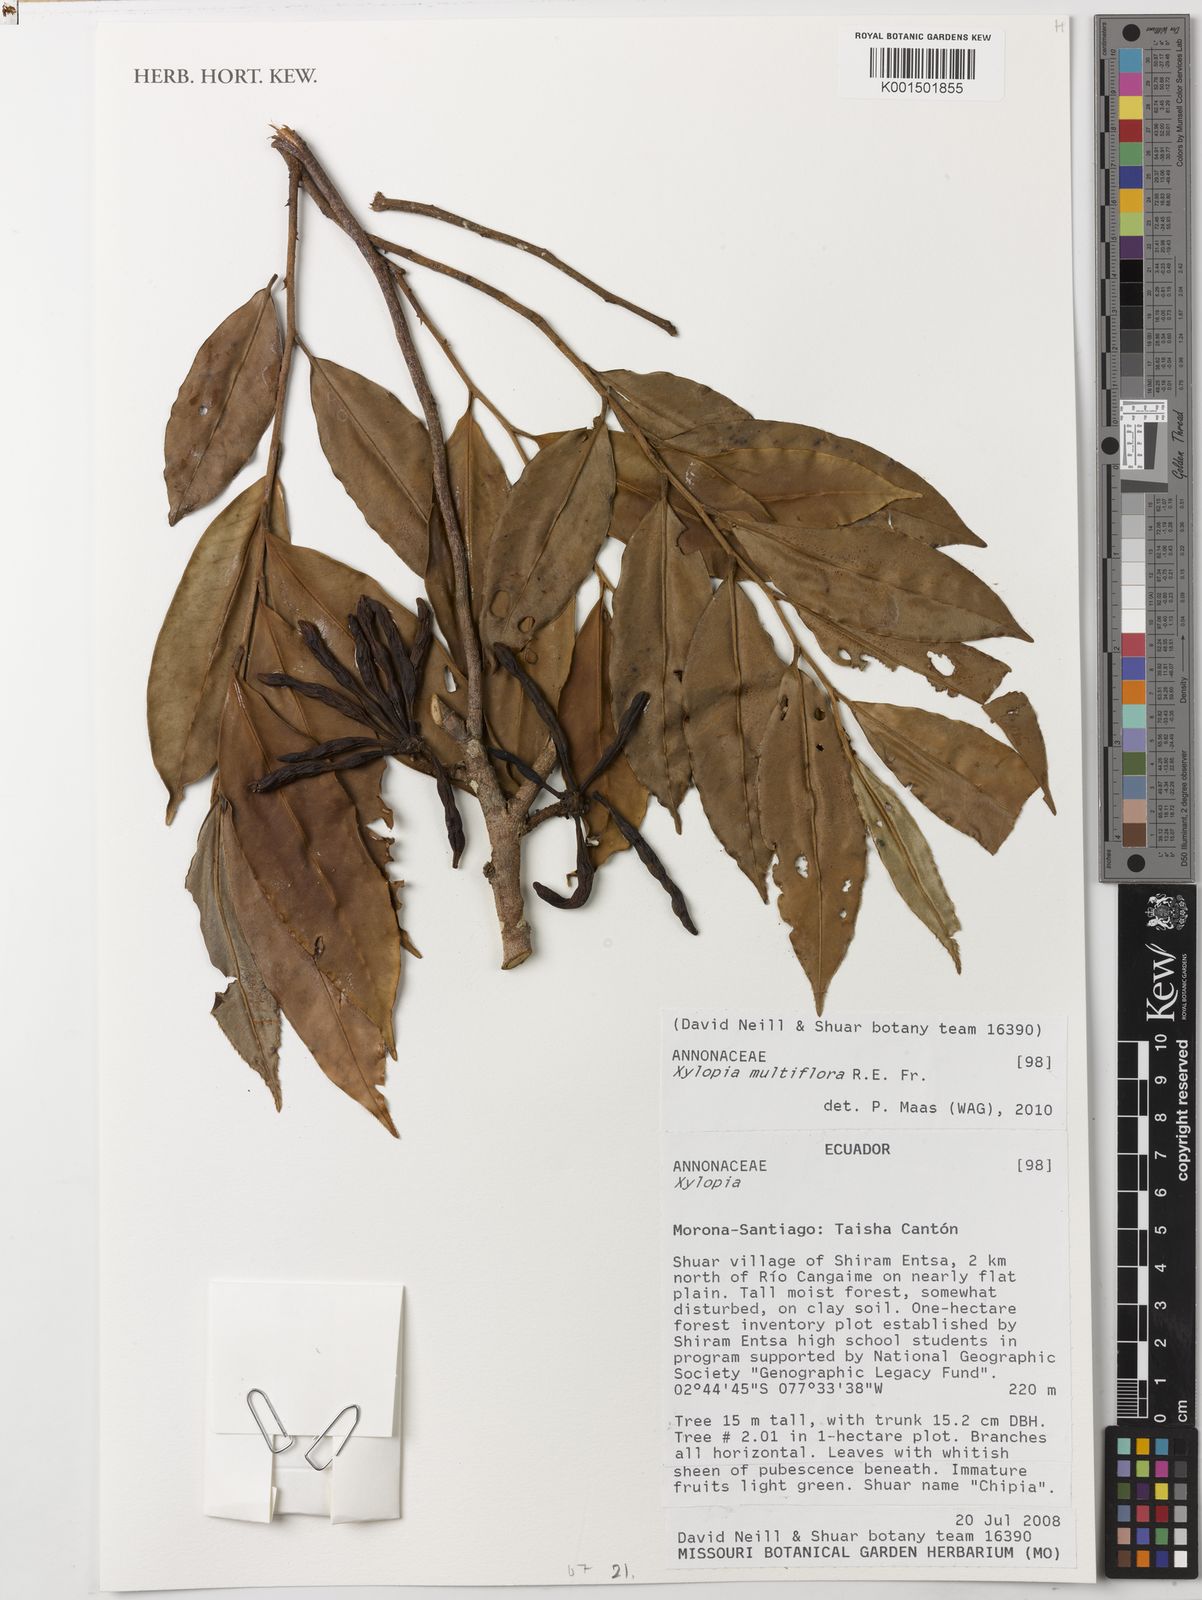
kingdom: Plantae
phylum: Tracheophyta
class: Magnoliopsida
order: Magnoliales
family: Annonaceae
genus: Xylopia
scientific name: Xylopia multiflora
